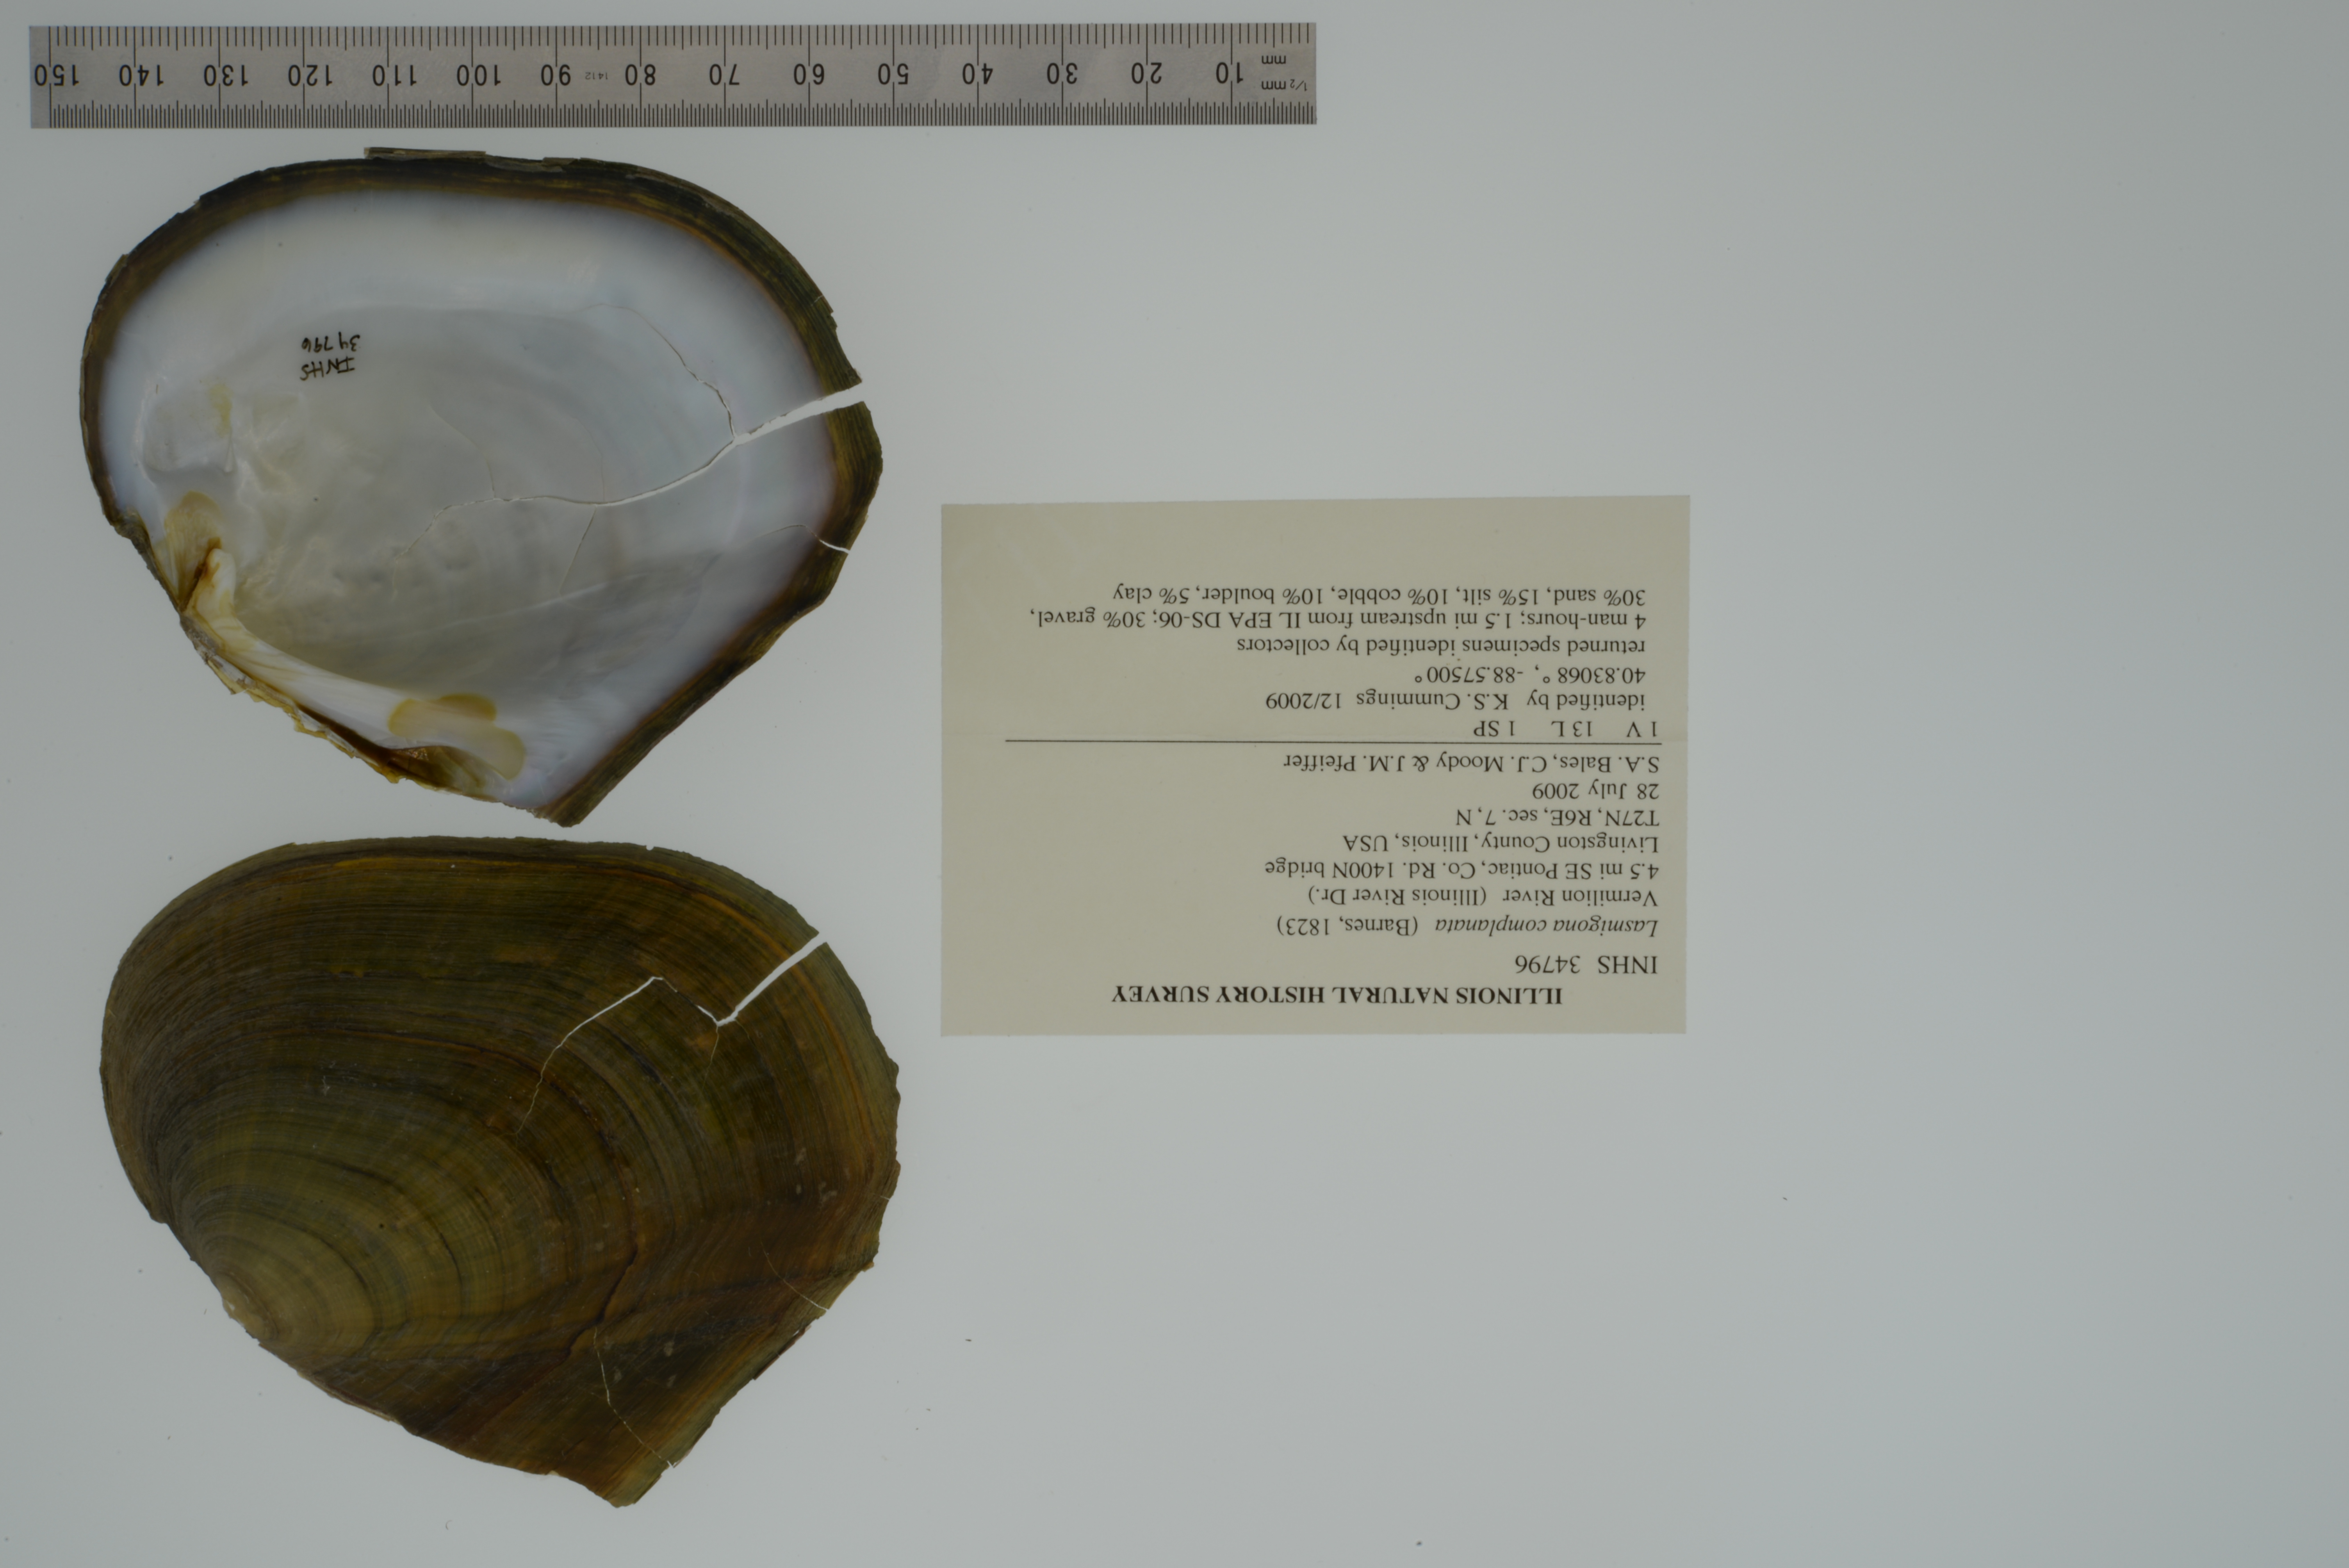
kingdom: Animalia
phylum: Mollusca
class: Bivalvia
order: Unionida
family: Unionidae
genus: Lasmigona
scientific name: Lasmigona complanata
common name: White heelsplitter
